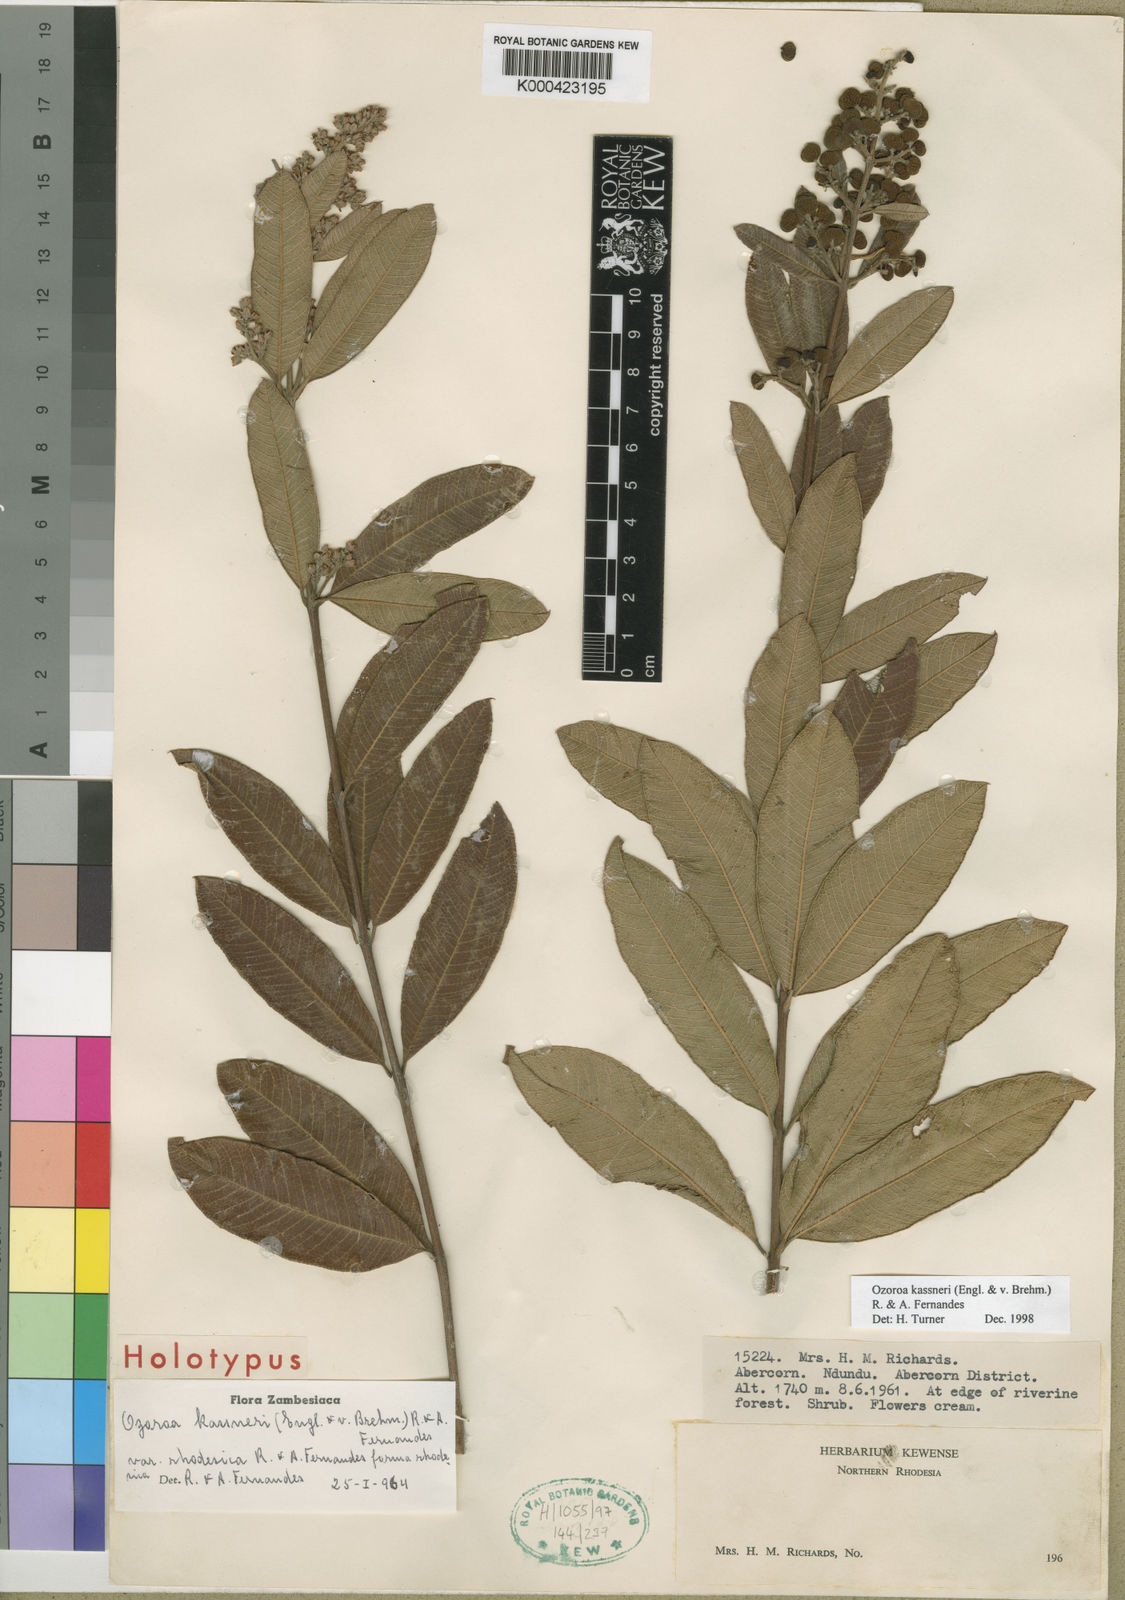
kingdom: Plantae
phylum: Tracheophyta
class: Magnoliopsida
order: Sapindales
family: Anacardiaceae
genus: Ozoroa
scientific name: Ozoroa
